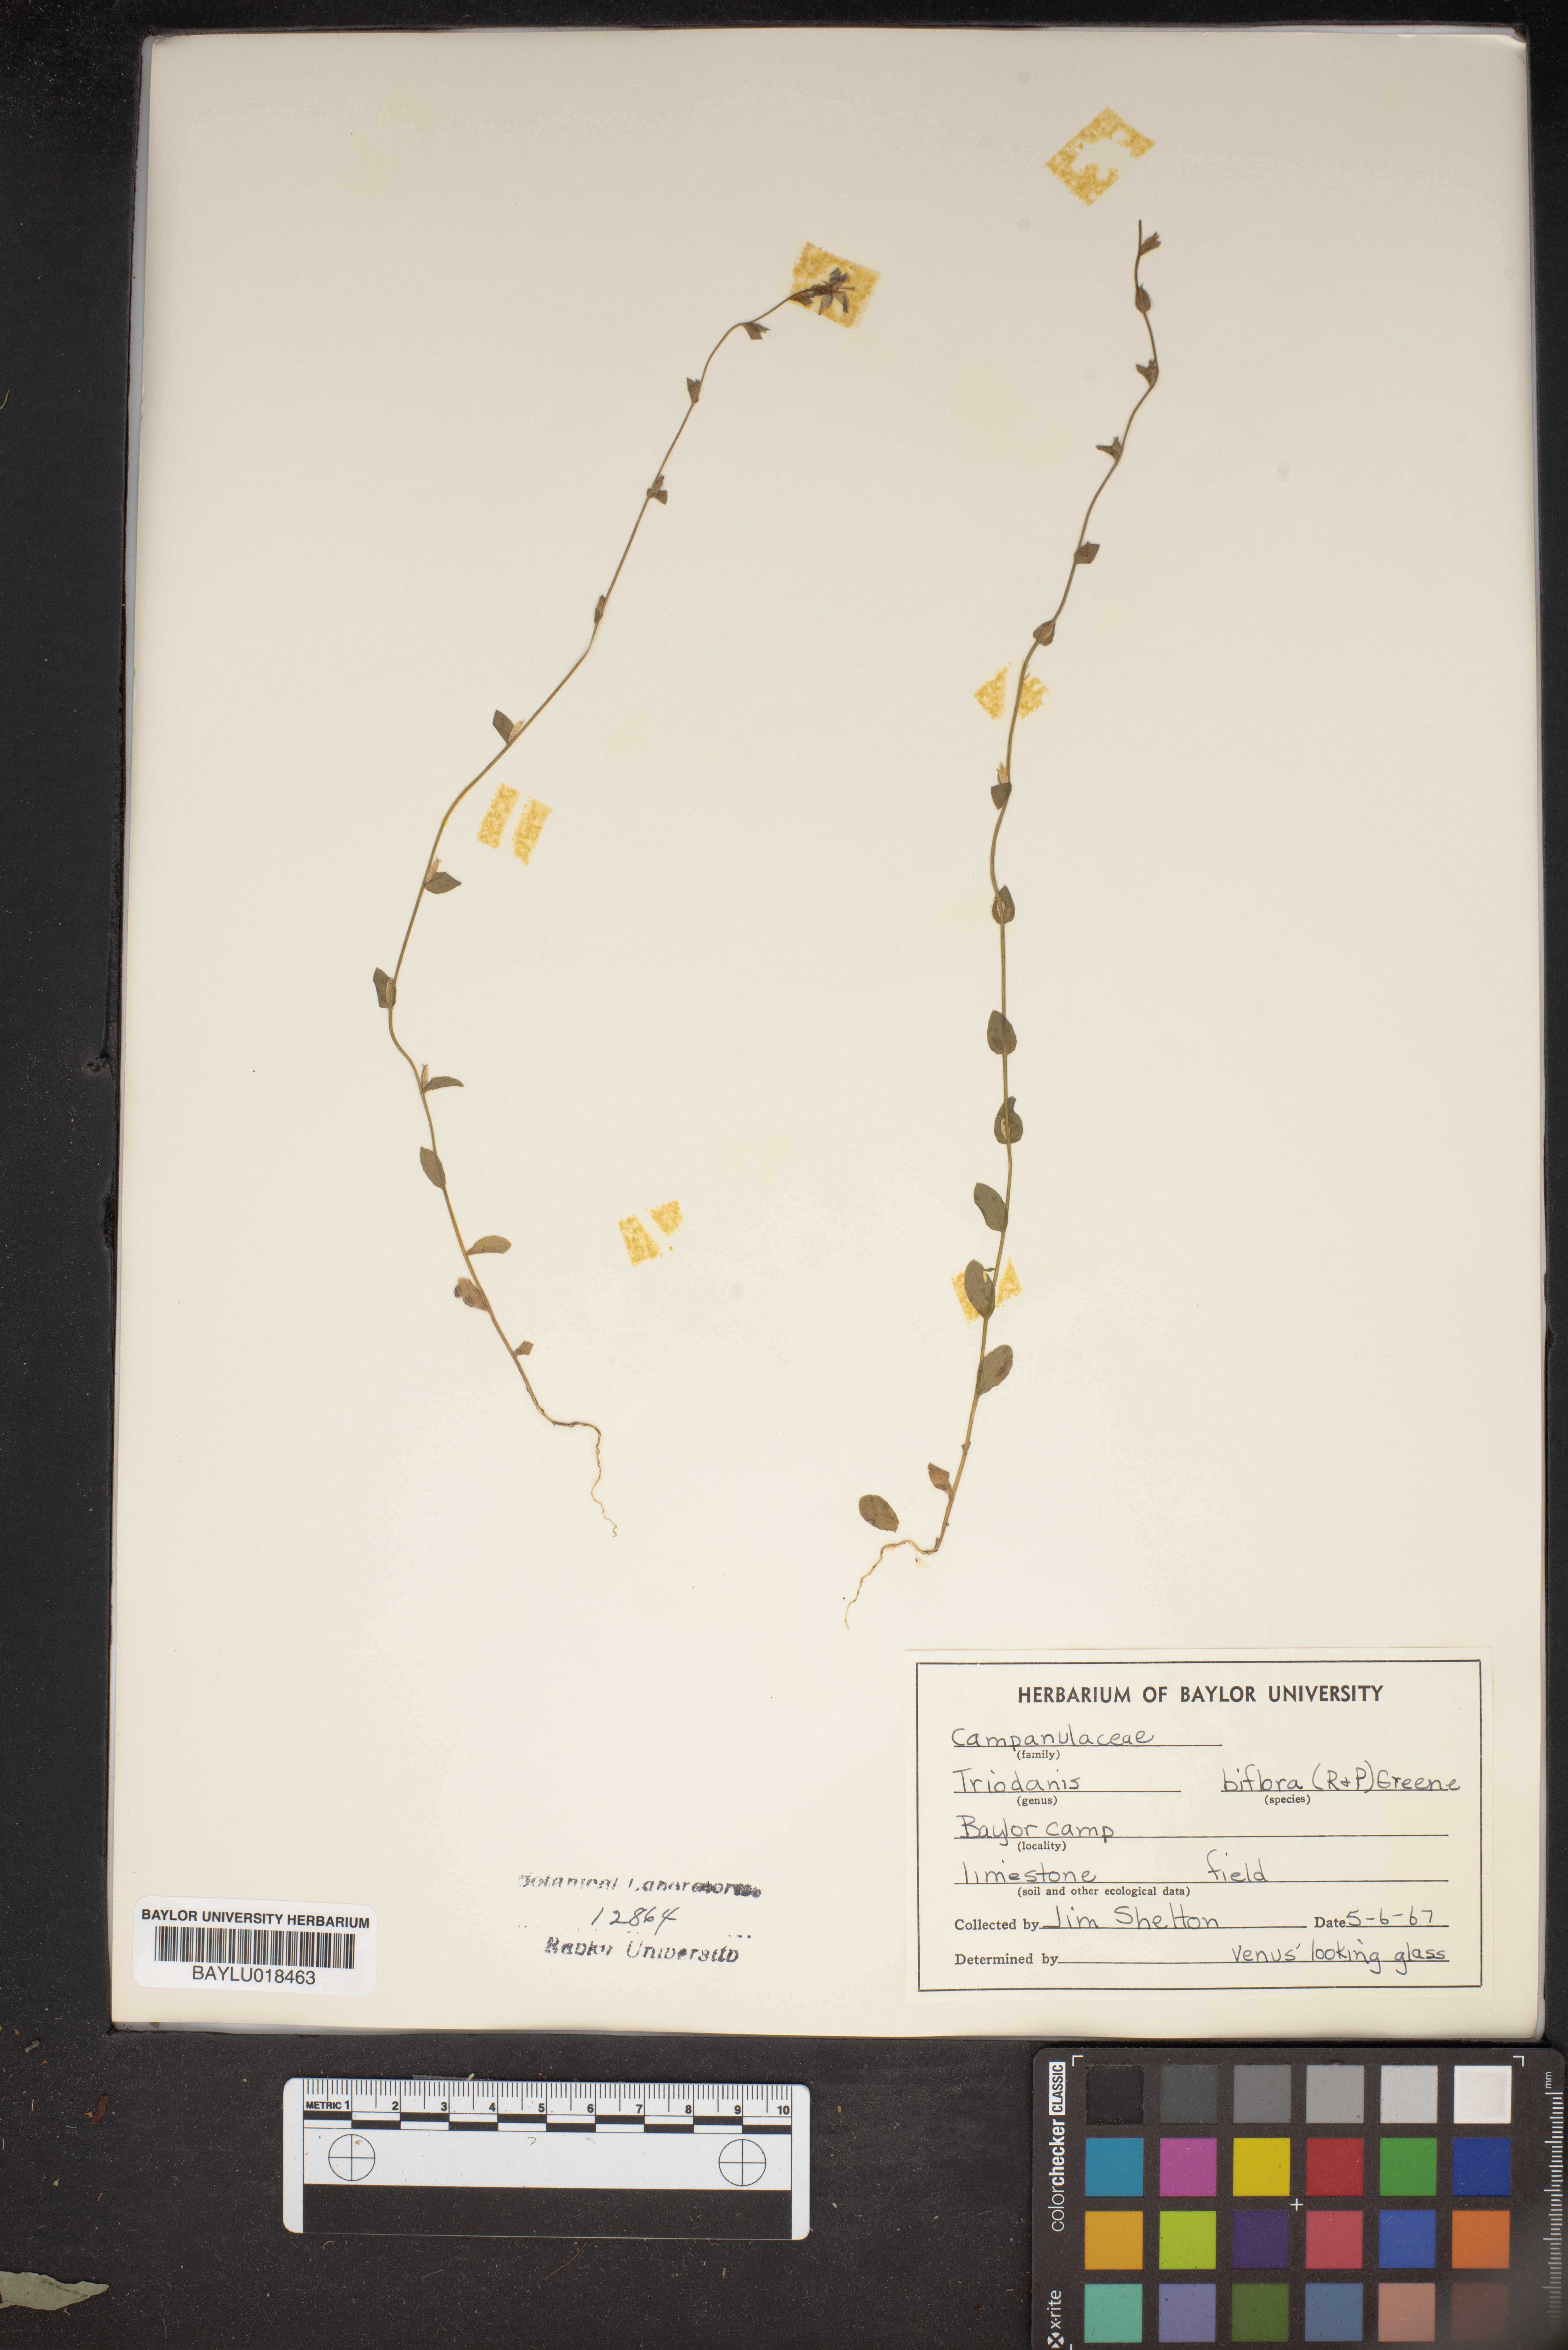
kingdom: Plantae
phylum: Tracheophyta
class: Magnoliopsida
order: Asterales
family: Campanulaceae
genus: Triodanis
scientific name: Triodanis perfoliata
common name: Clasping venus' looking-glass
